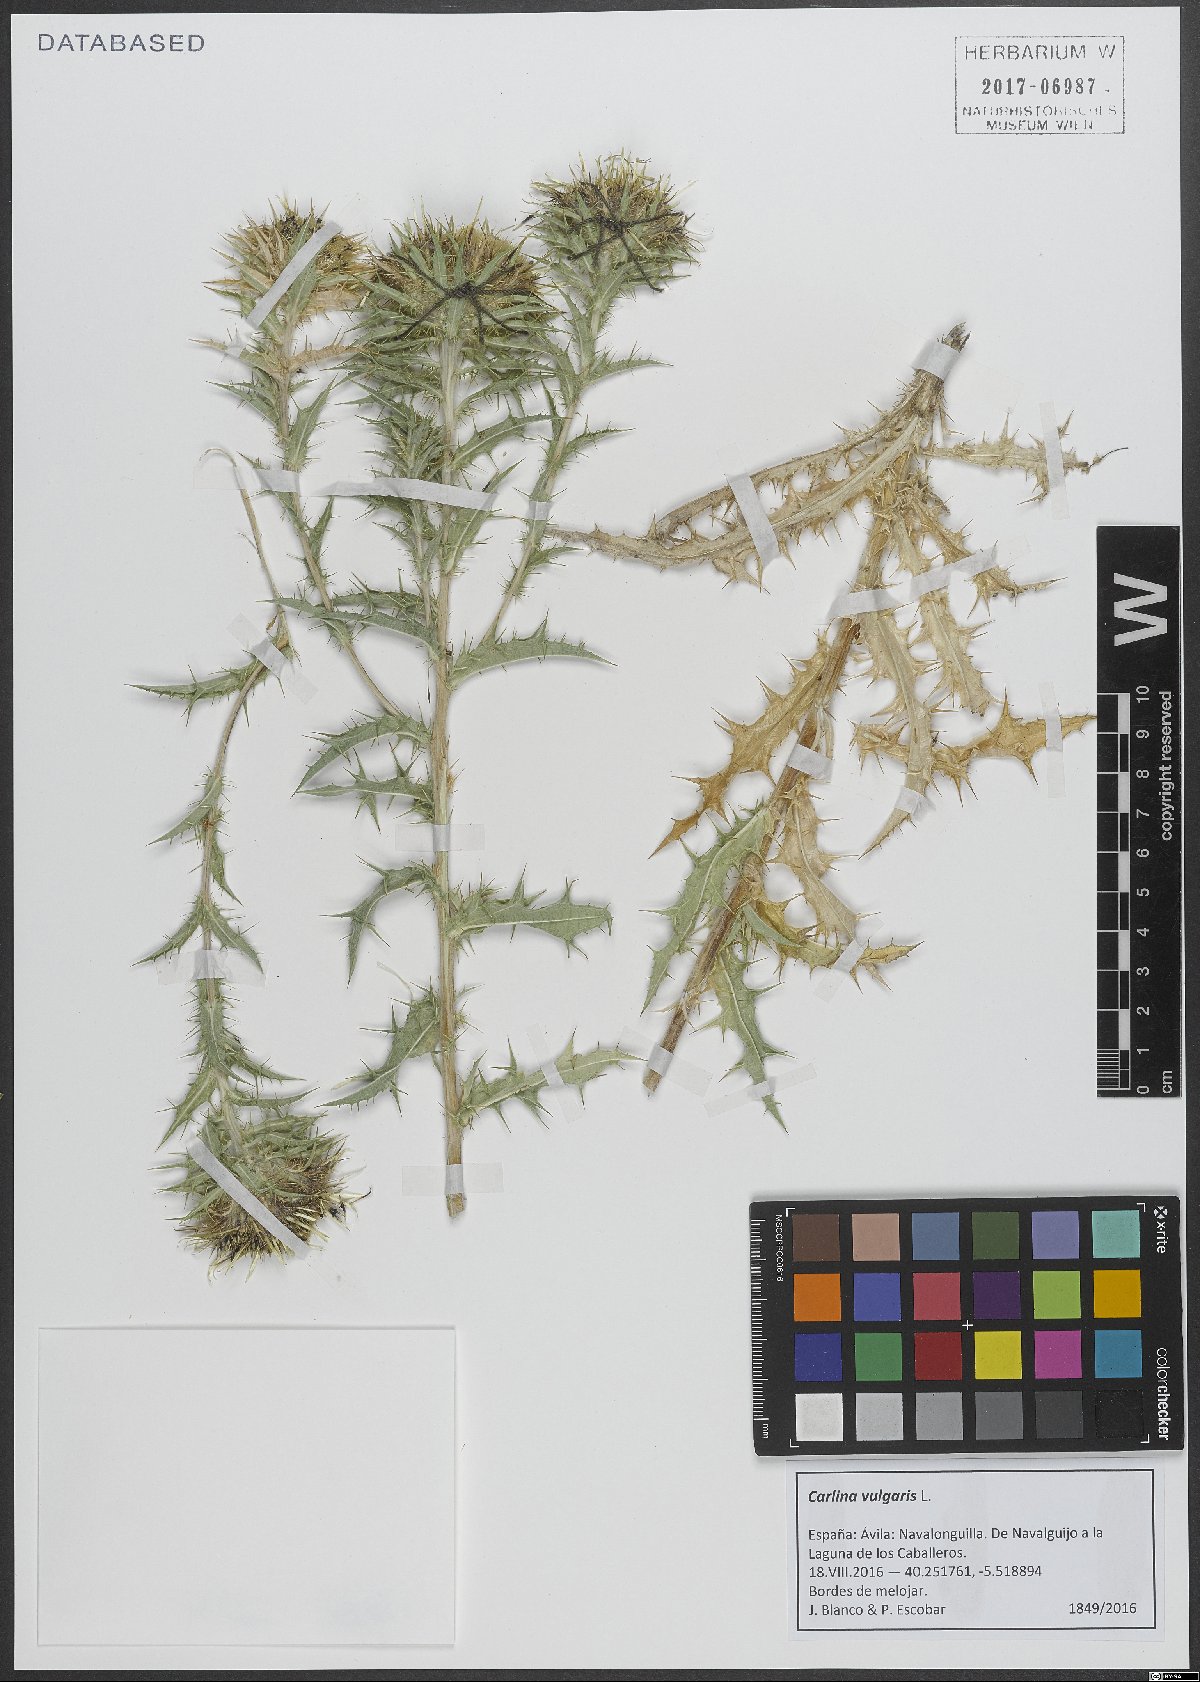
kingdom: Plantae
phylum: Tracheophyta
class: Magnoliopsida
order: Asterales
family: Asteraceae
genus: Carlina
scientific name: Carlina vulgaris
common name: Carline thistle
